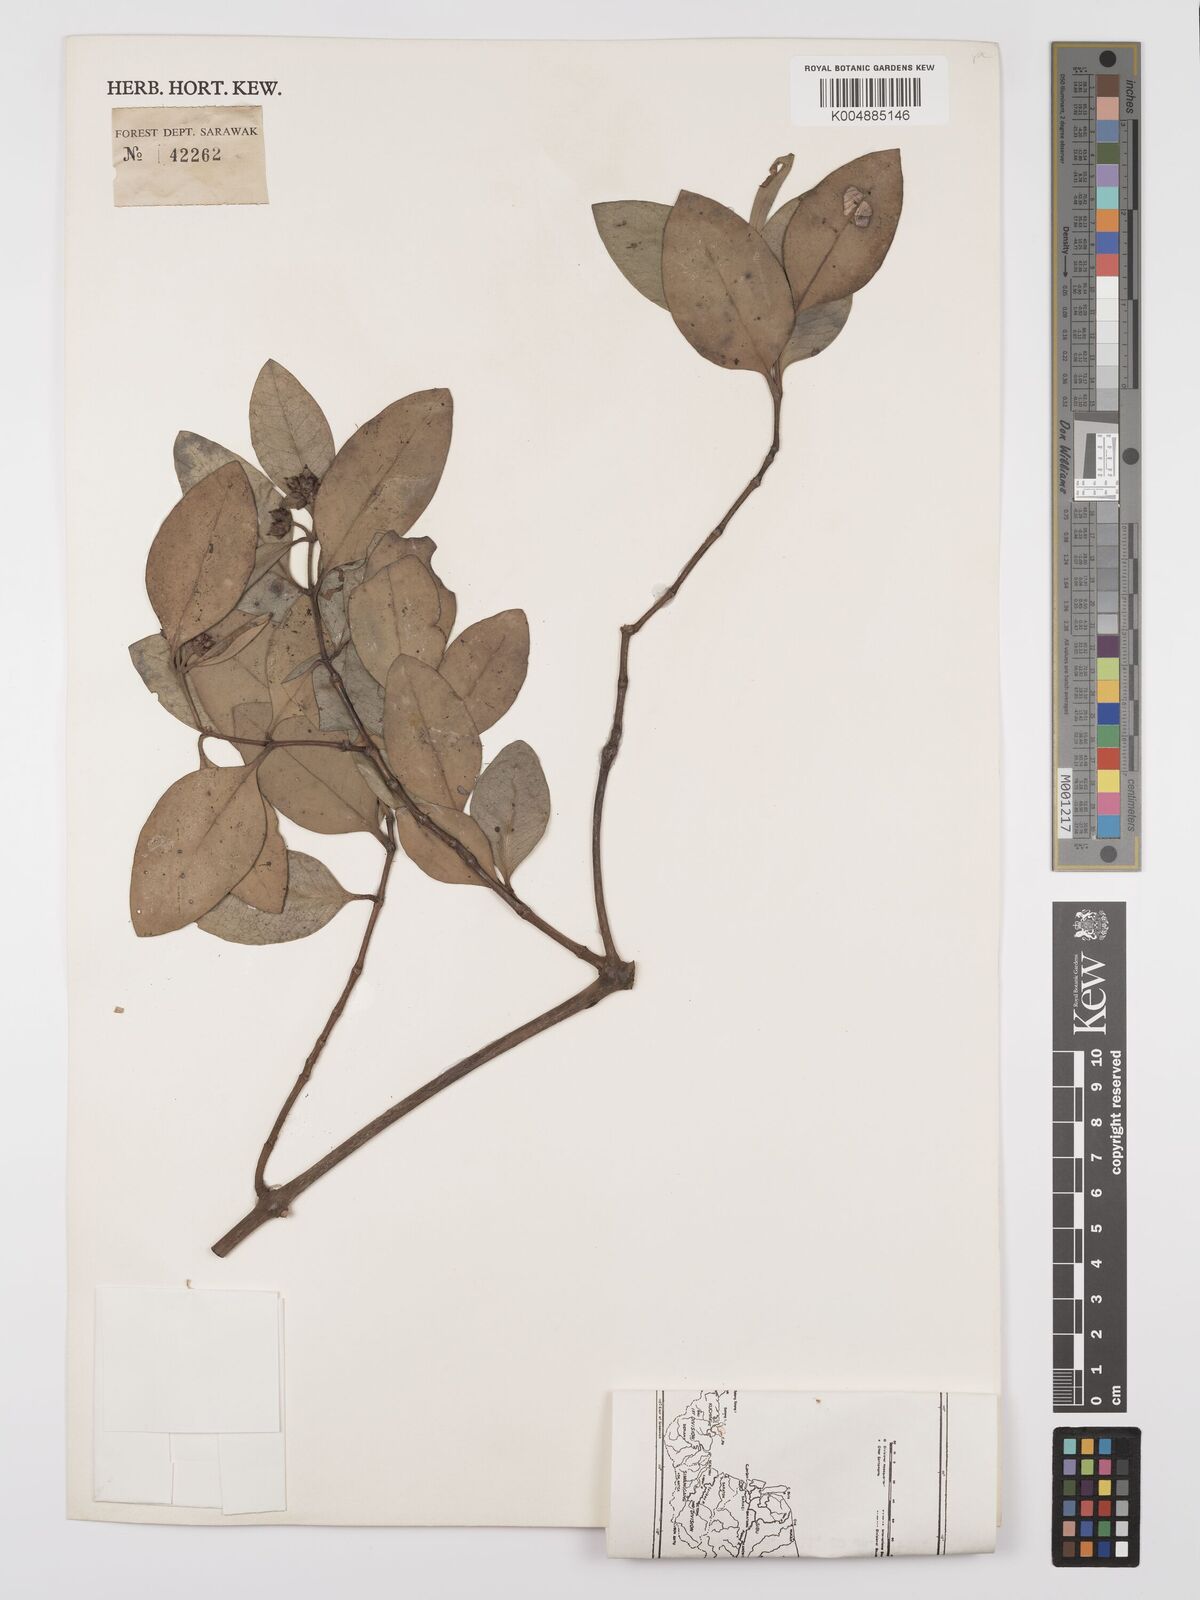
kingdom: Plantae
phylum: Tracheophyta
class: Magnoliopsida
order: Lamiales
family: Acanthaceae
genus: Avicennia
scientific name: Avicennia officinalis
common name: Baen
